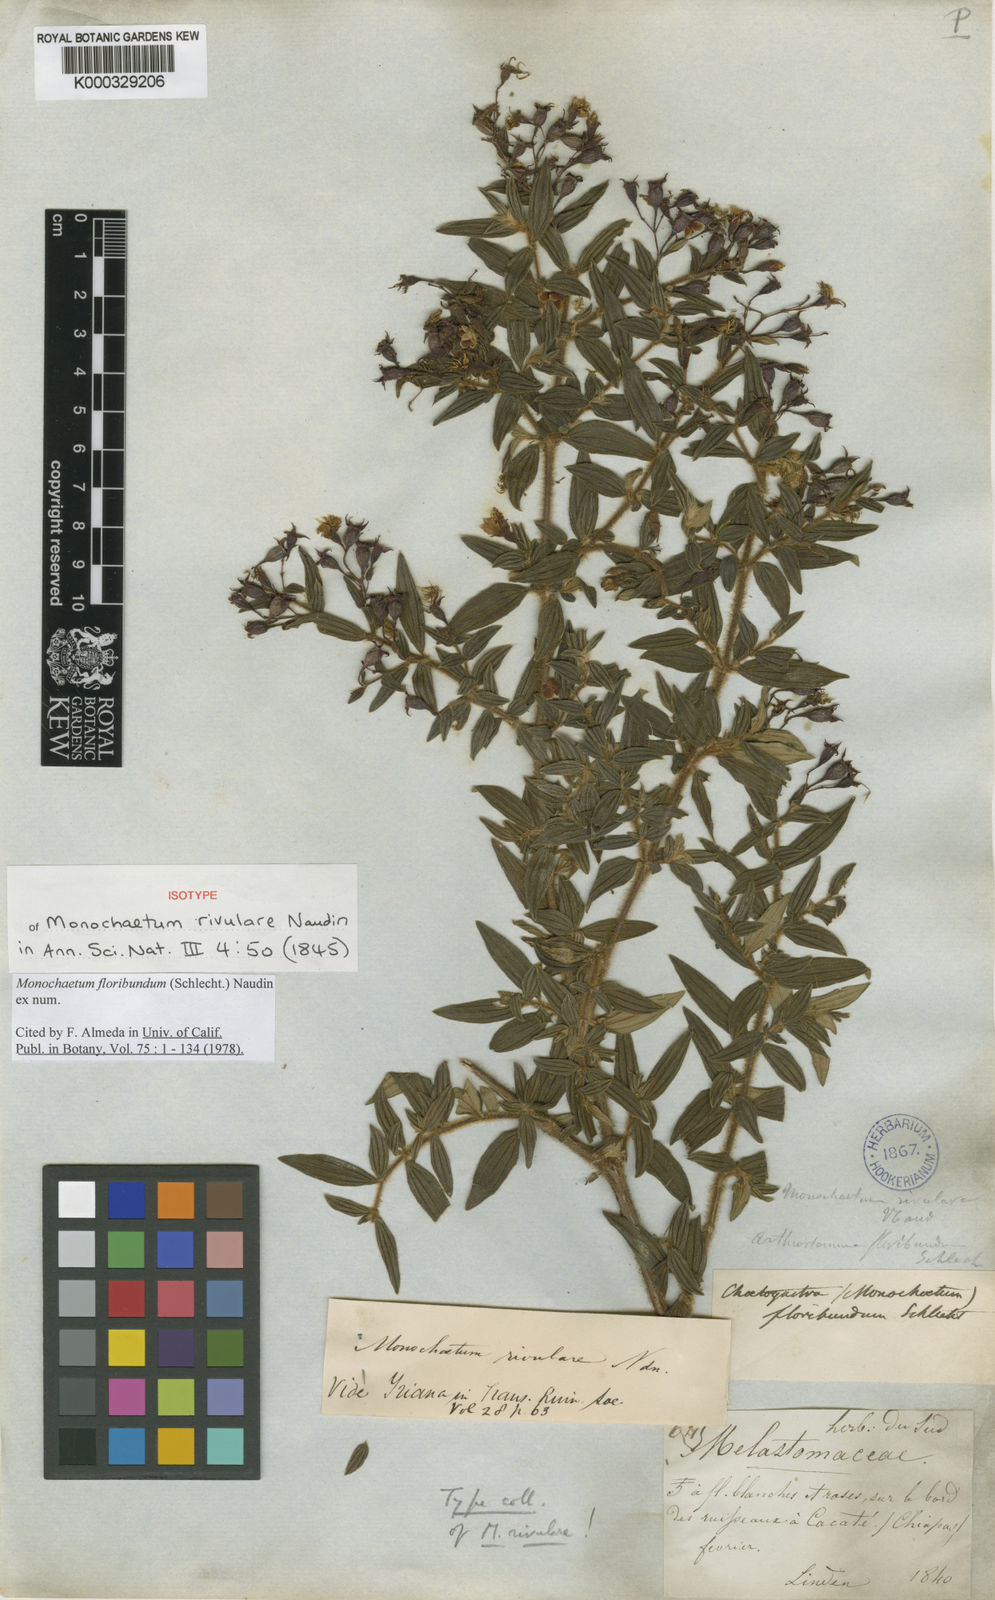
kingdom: Plantae
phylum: Tracheophyta
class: Magnoliopsida
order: Myrtales
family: Melastomataceae
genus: Monochaetum
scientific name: Monochaetum floribundum
